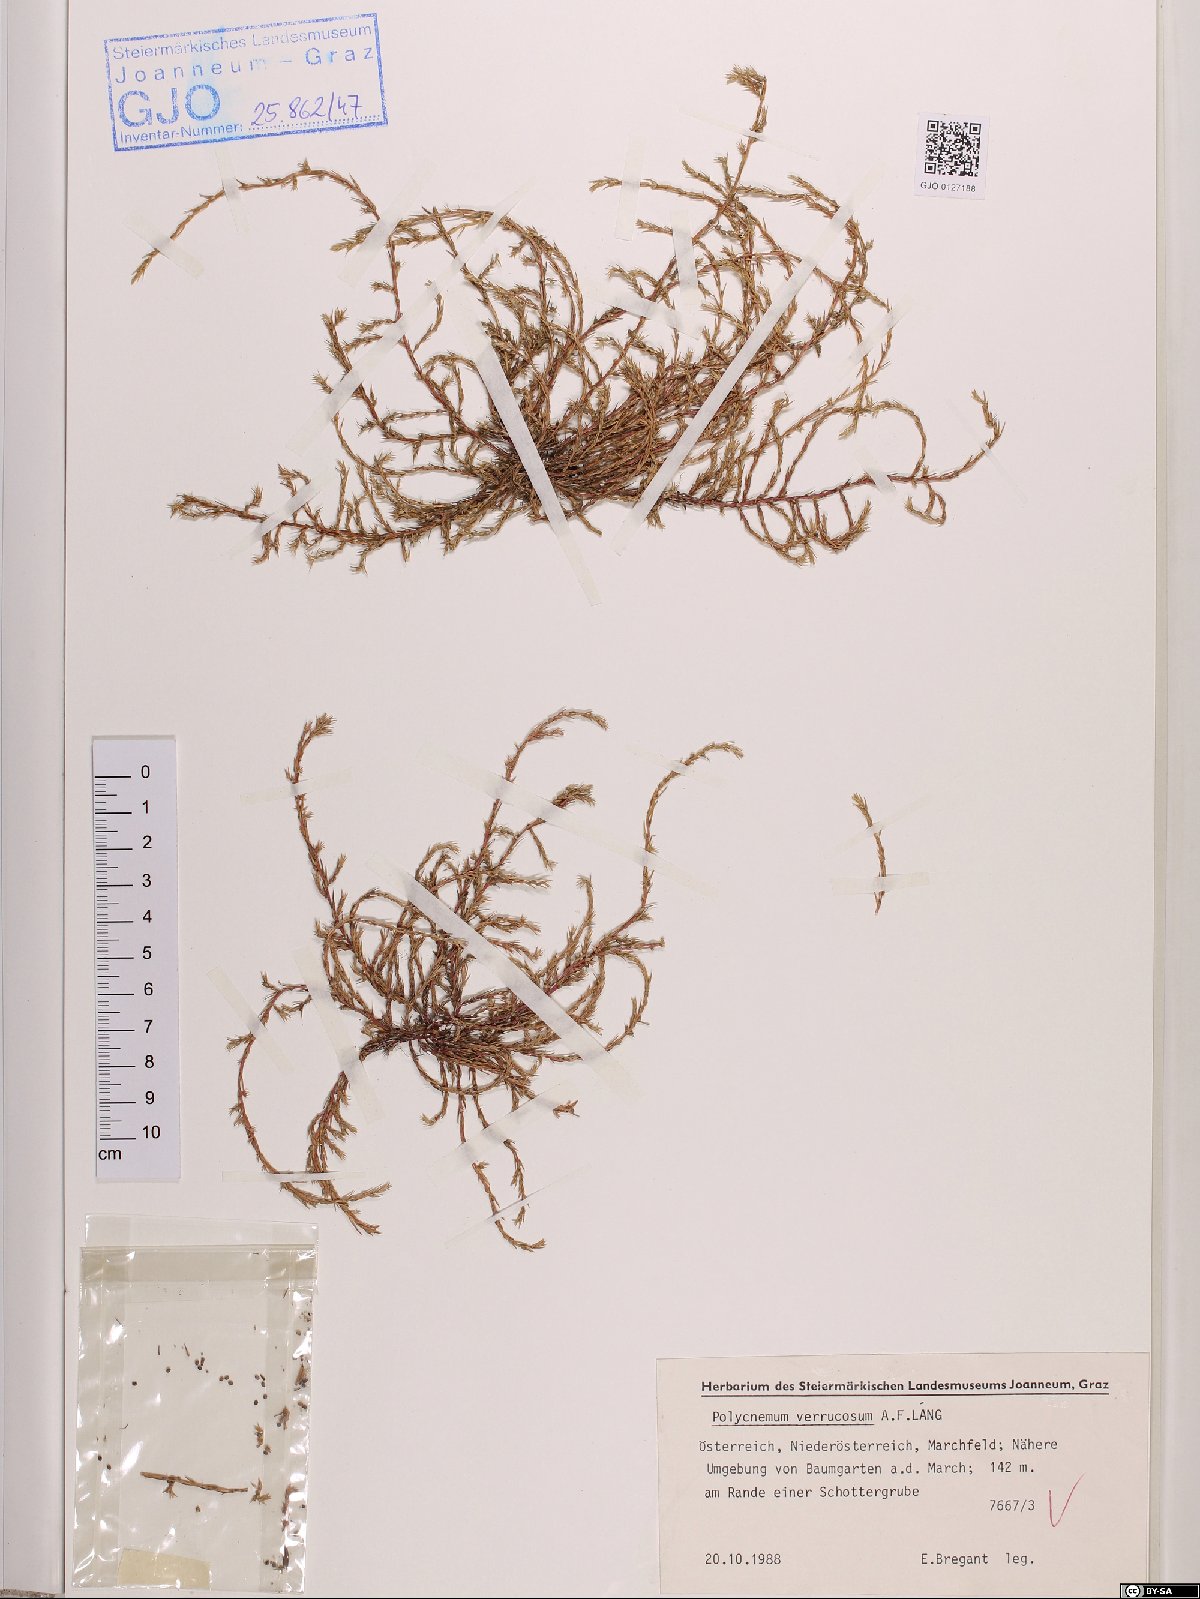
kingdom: Plantae
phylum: Tracheophyta
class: Magnoliopsida
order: Caryophyllales
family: Amaranthaceae
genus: Polycnemum
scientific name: Polycnemum verrucosum
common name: Warty needleleaf
